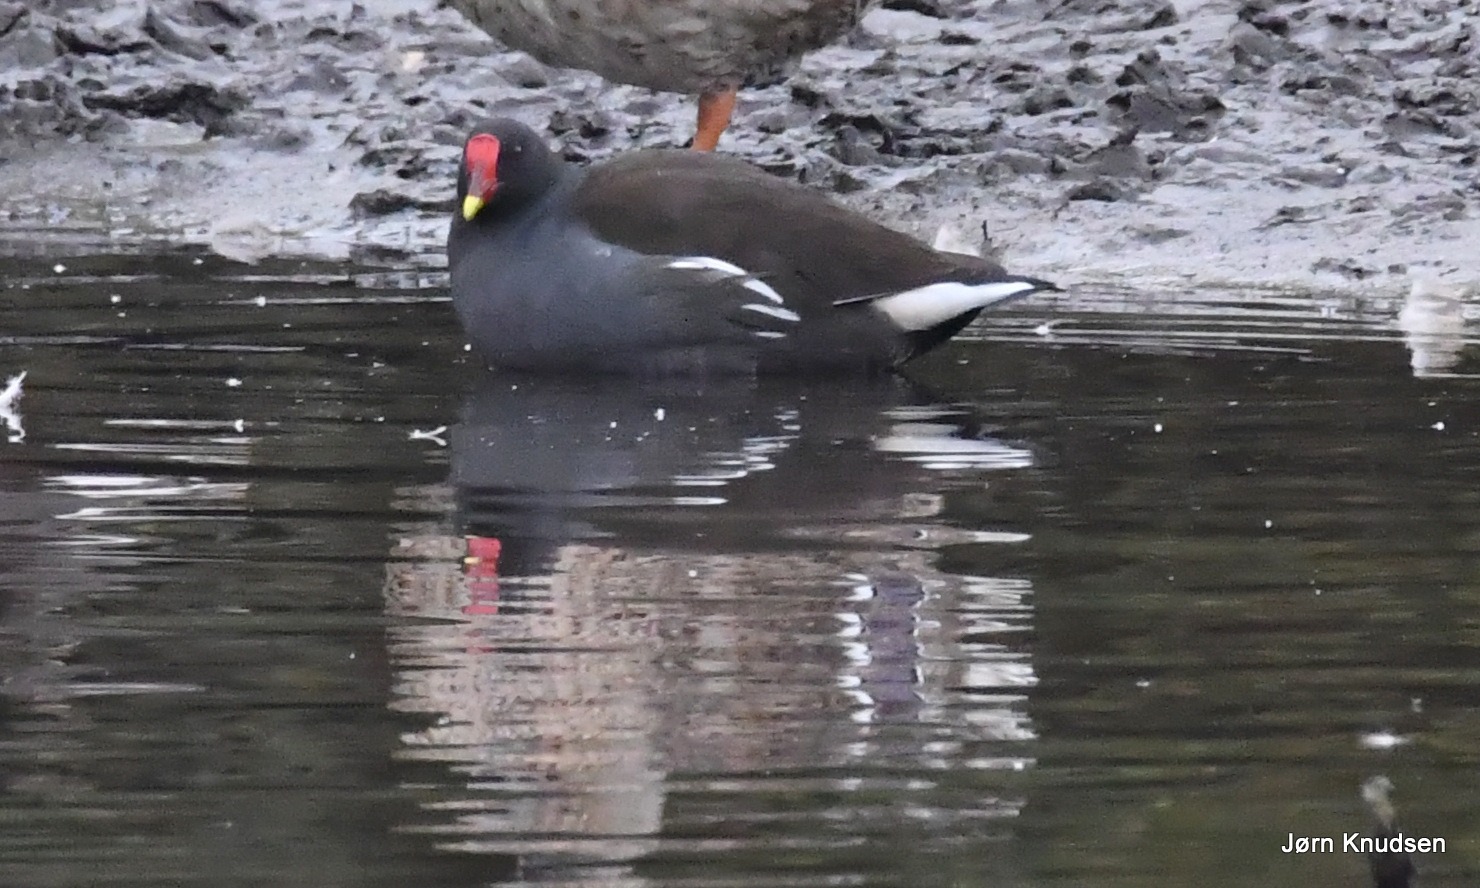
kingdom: Animalia
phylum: Chordata
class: Aves
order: Gruiformes
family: Rallidae
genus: Gallinula
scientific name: Gallinula chloropus
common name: Grønbenet rørhøne
